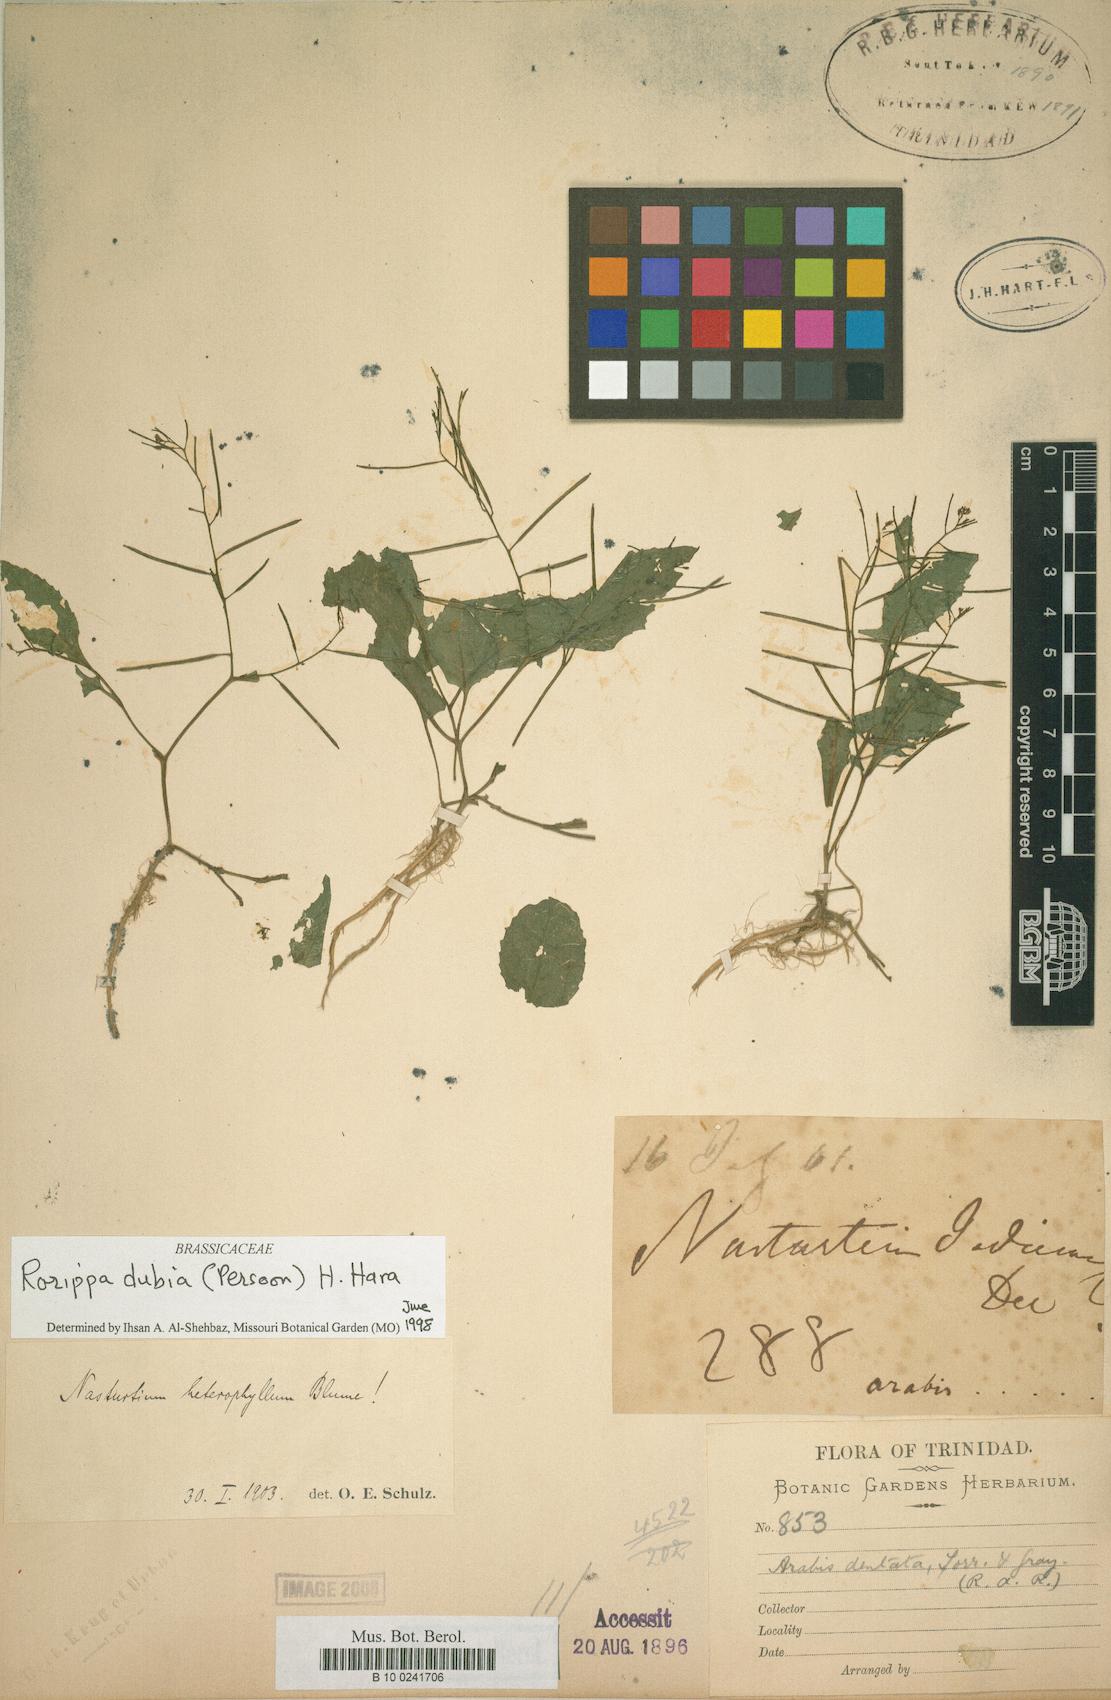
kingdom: Plantae
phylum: Tracheophyta
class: Magnoliopsida
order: Brassicales
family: Brassicaceae
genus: Rorippa
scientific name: Rorippa dubia
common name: Variableleaf yellowcress
